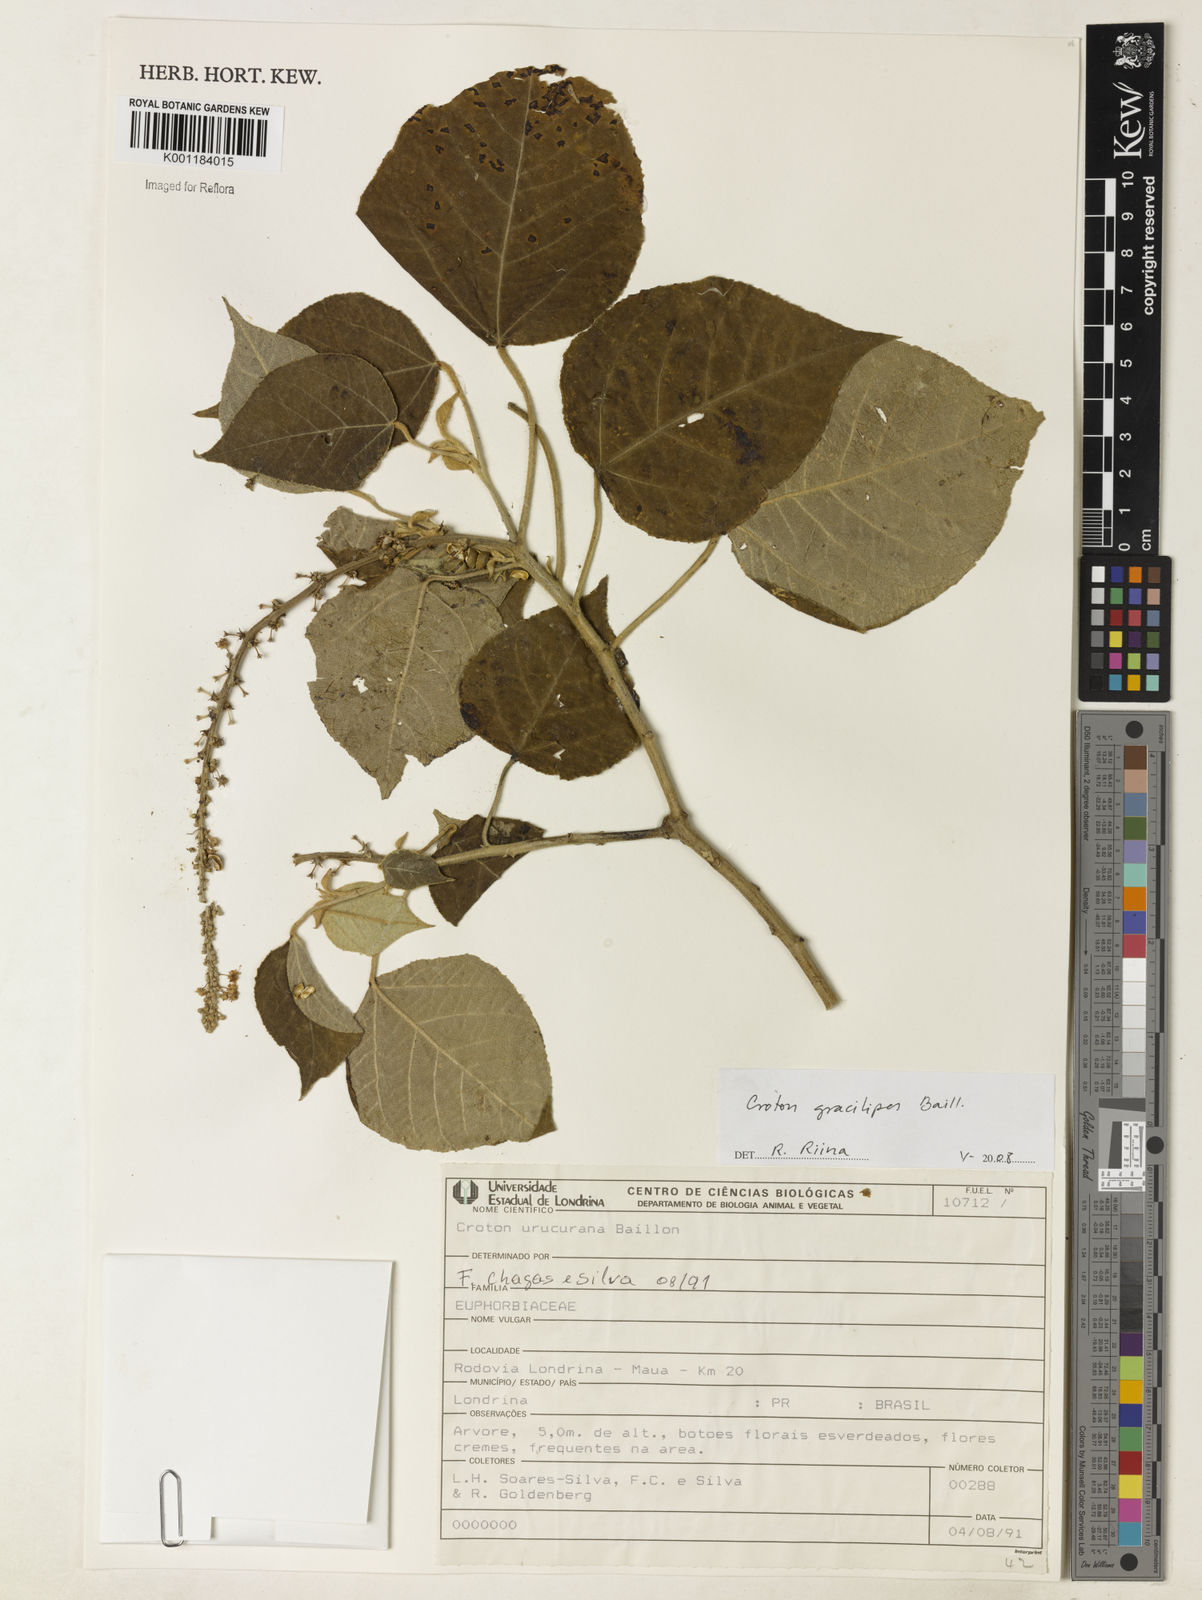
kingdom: Plantae
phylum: Tracheophyta
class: Magnoliopsida
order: Malpighiales
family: Euphorbiaceae
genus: Croton
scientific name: Croton gracilipes
